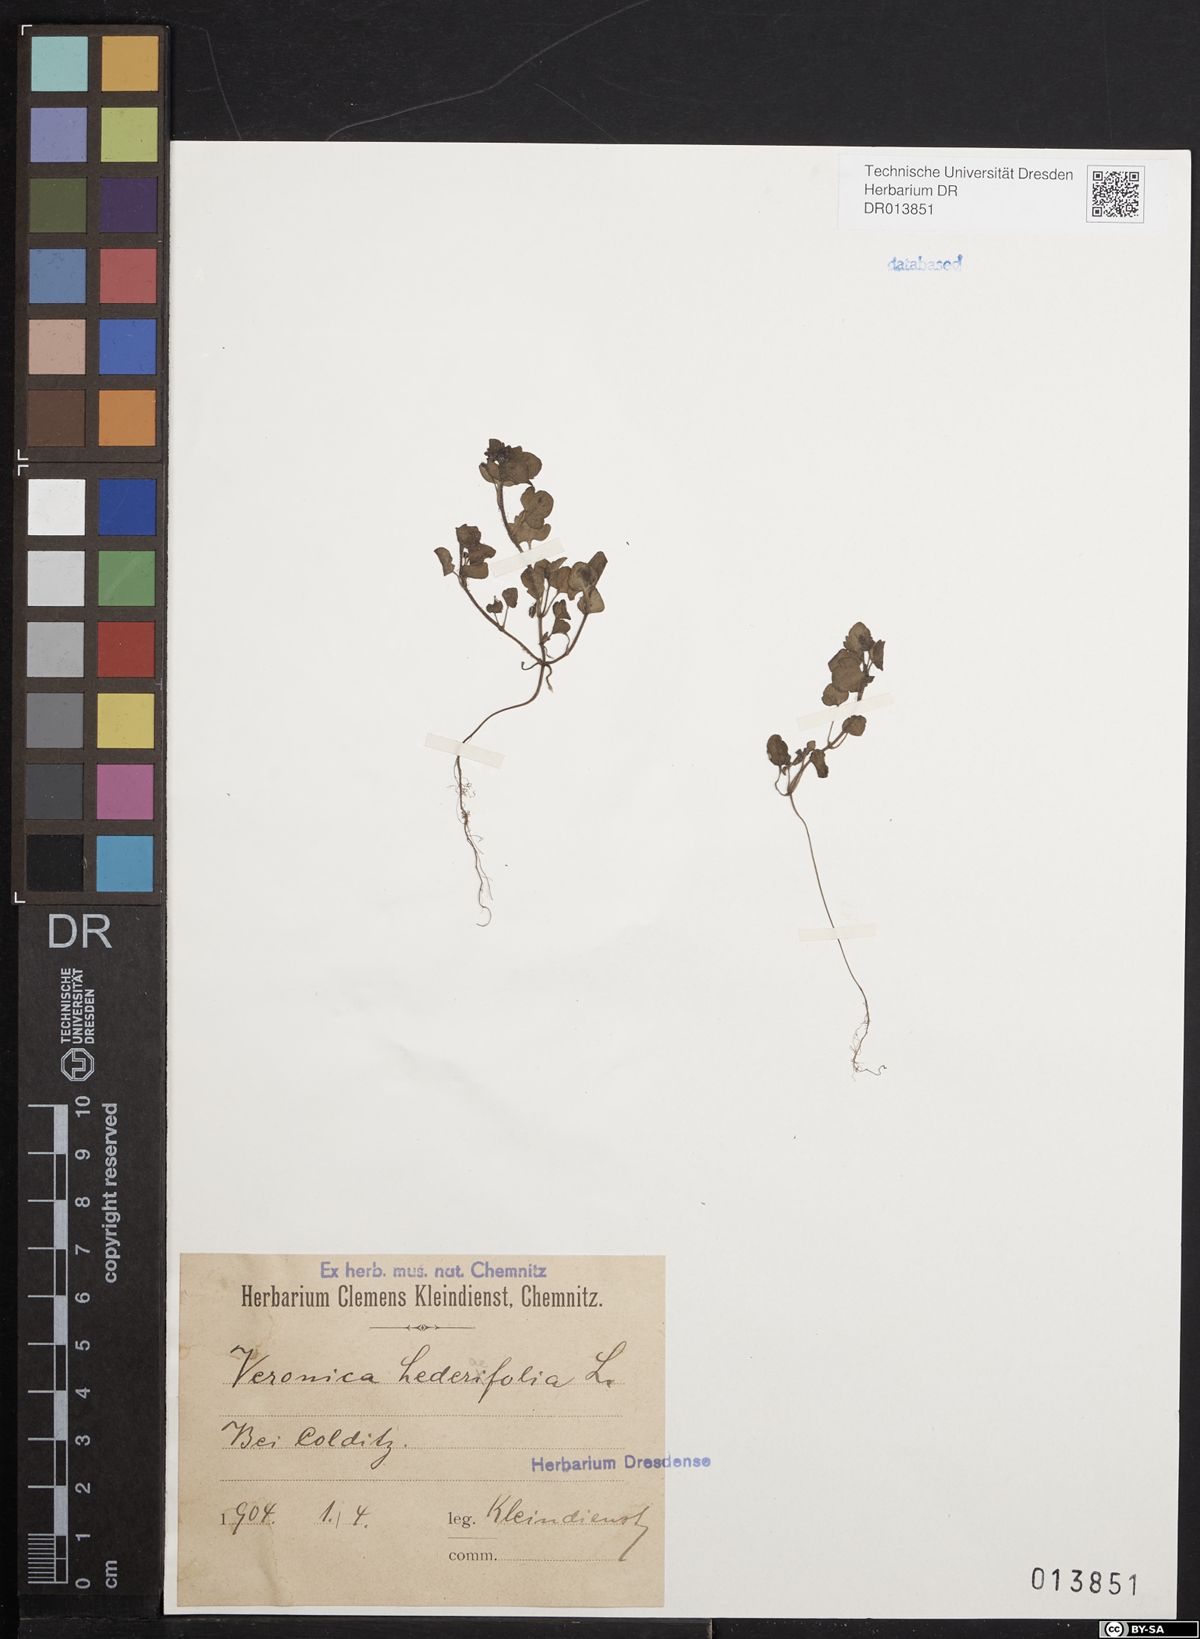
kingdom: Plantae
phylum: Tracheophyta
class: Magnoliopsida
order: Lamiales
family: Plantaginaceae
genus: Veronica
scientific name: Veronica hederifolia
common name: Ivy-leaved speedwell
